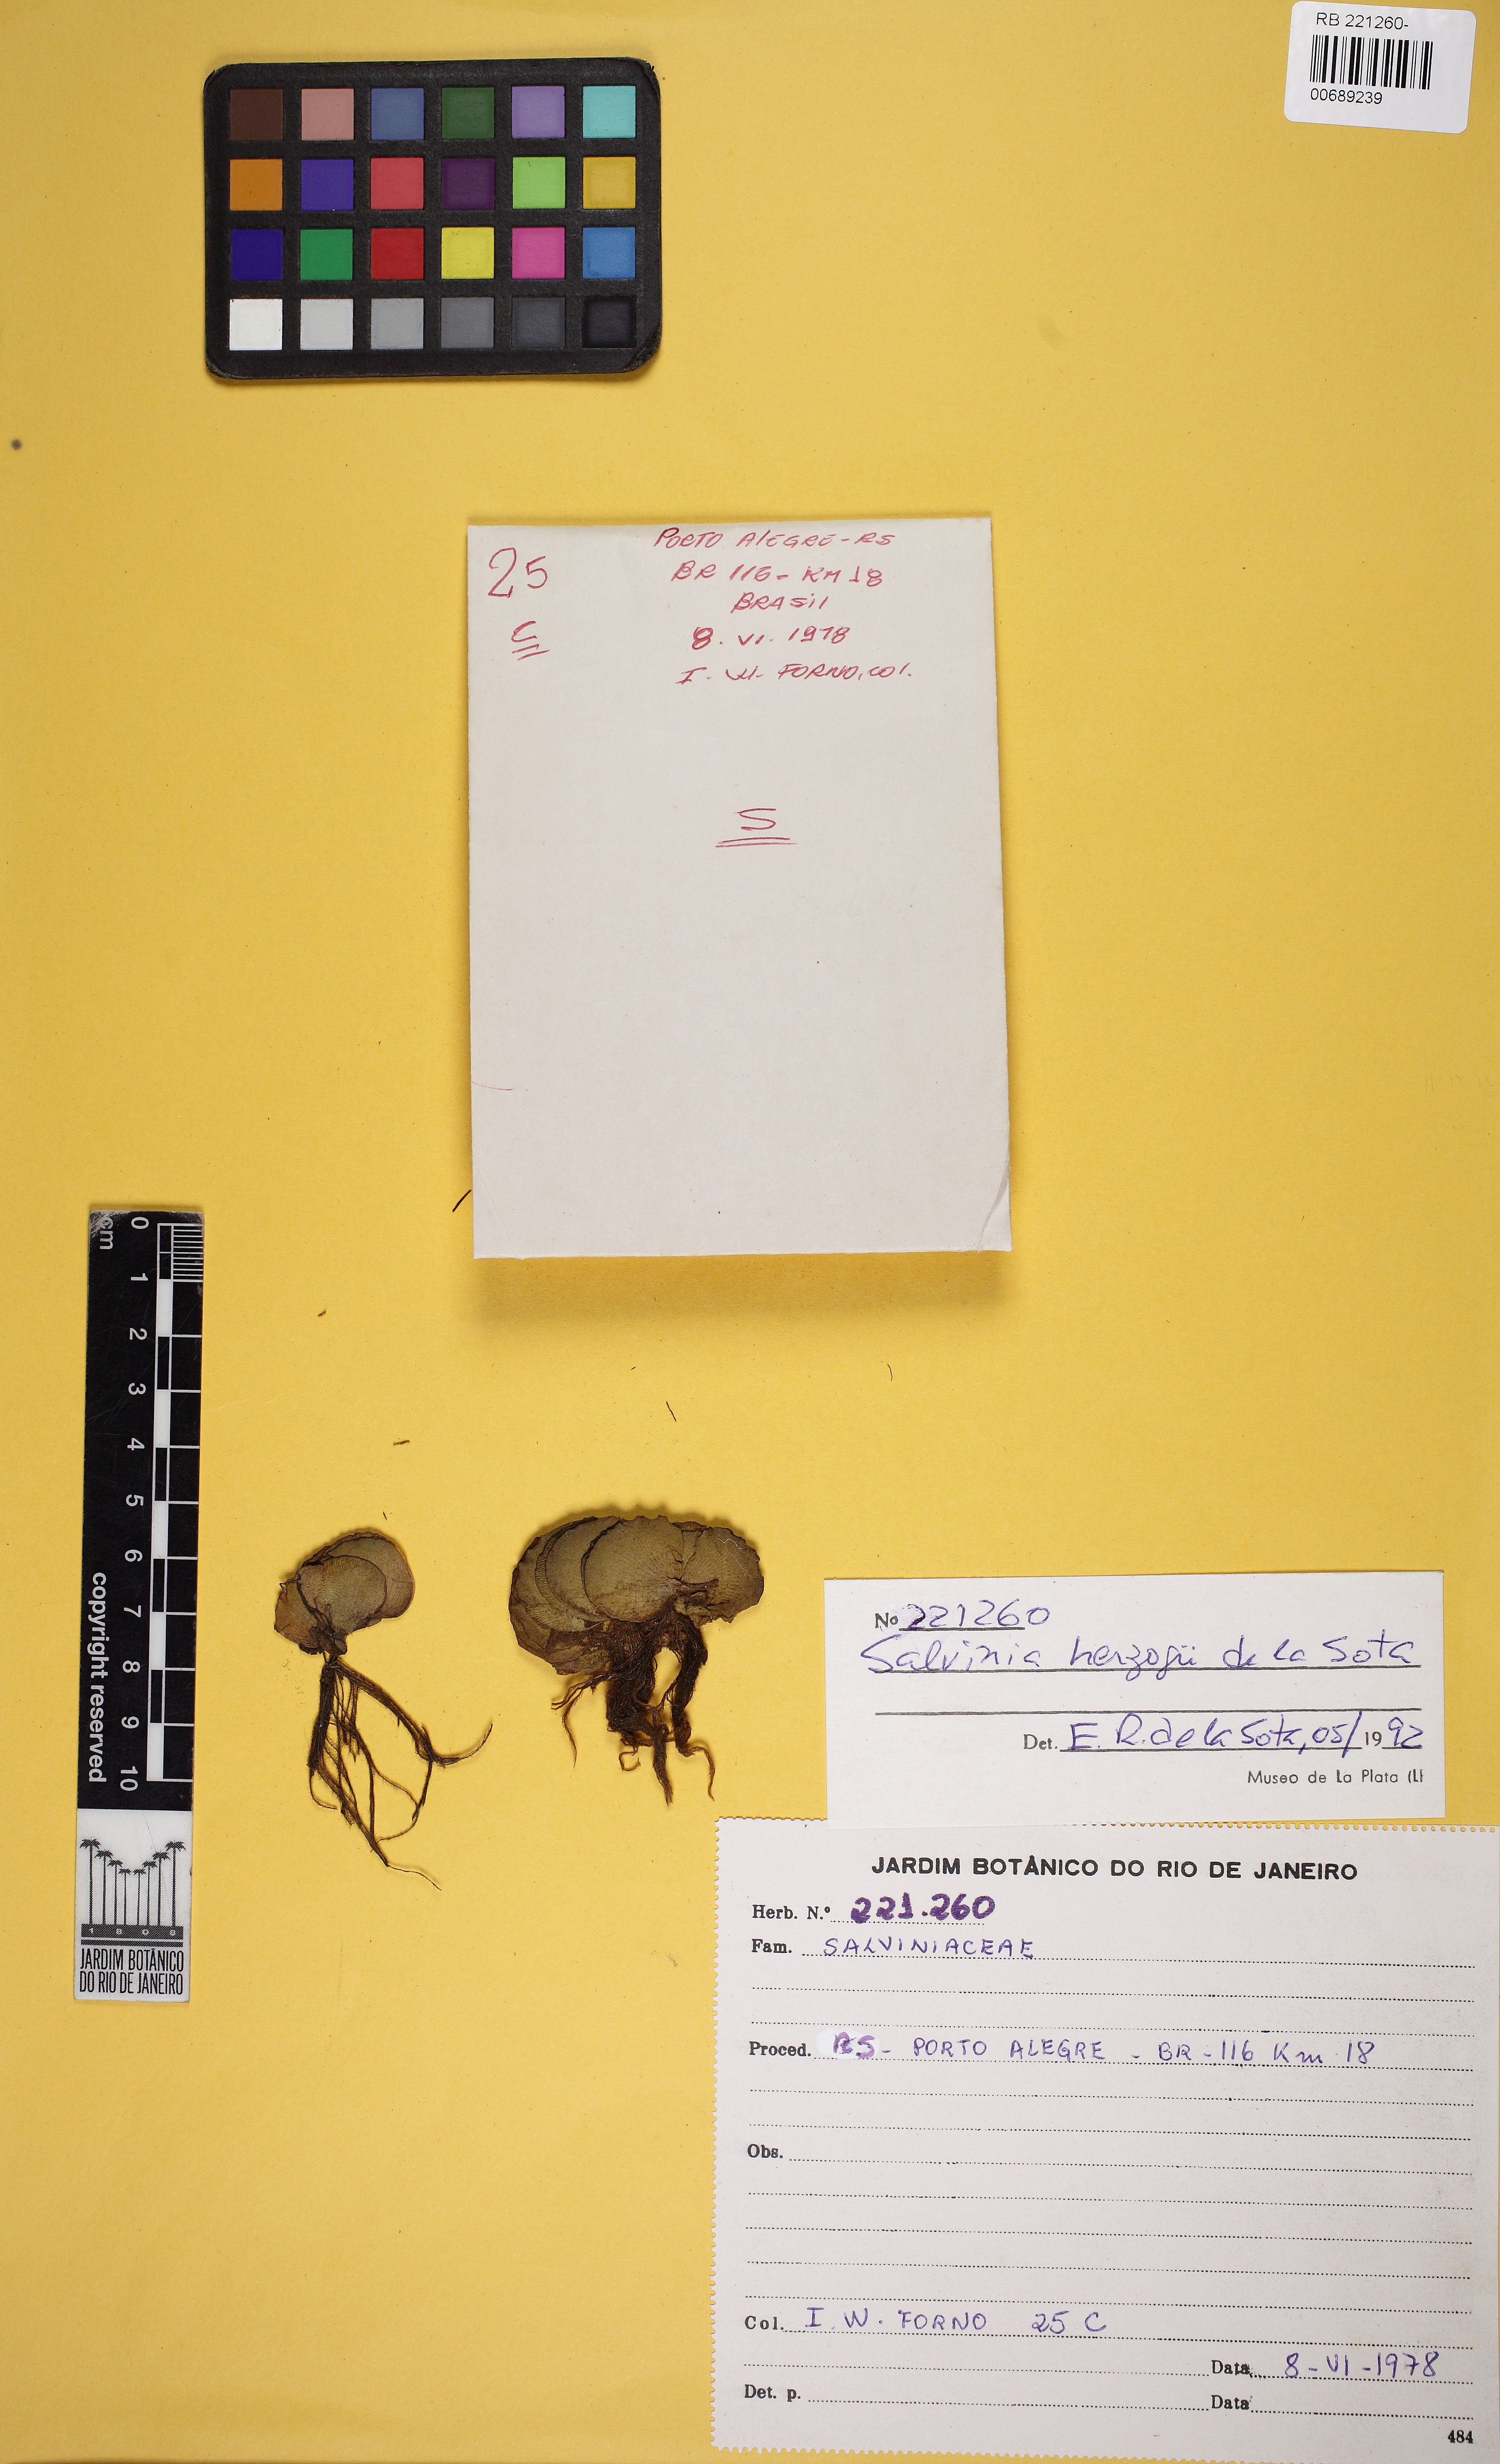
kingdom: Plantae
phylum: Tracheophyta
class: Polypodiopsida
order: Salviniales
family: Salviniaceae
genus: Salvinia
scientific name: Salvinia biloba
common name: Giant salvinia
